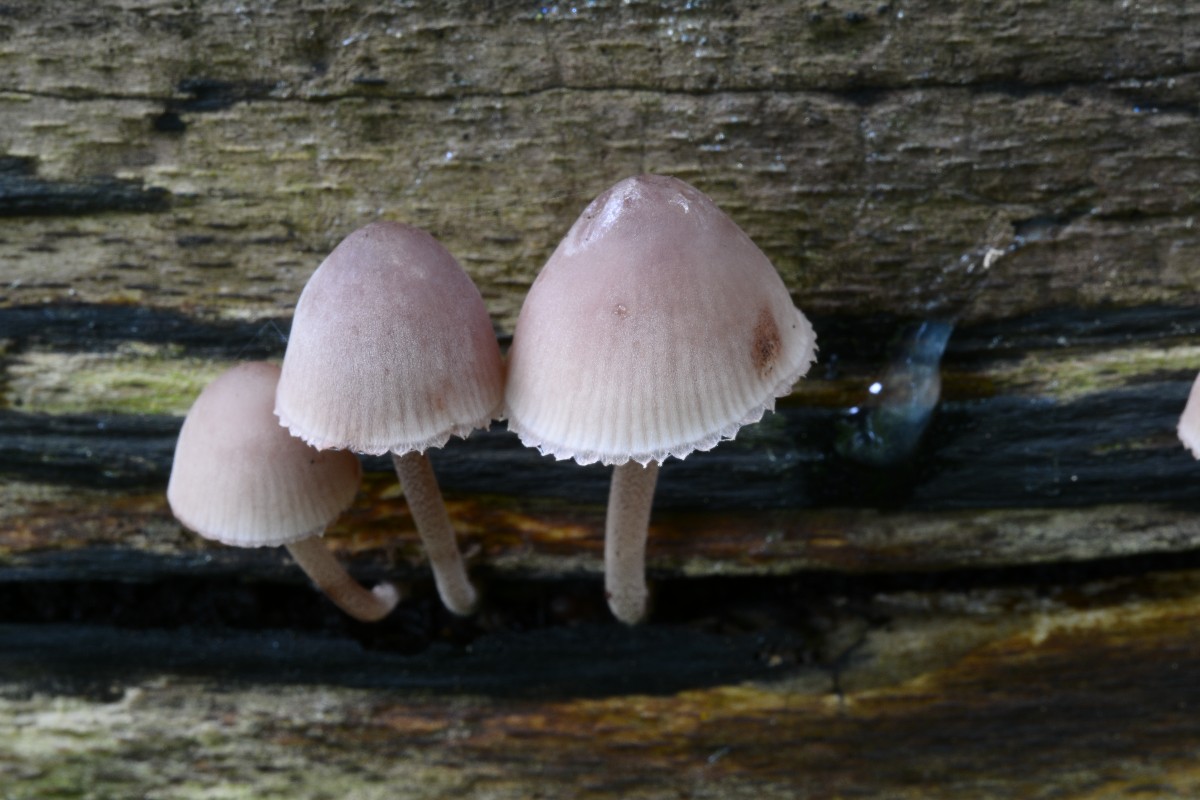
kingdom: Fungi
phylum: Basidiomycota
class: Agaricomycetes
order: Agaricales
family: Mycenaceae
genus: Mycena
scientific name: Mycena haematopus
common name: blødende huesvamp
